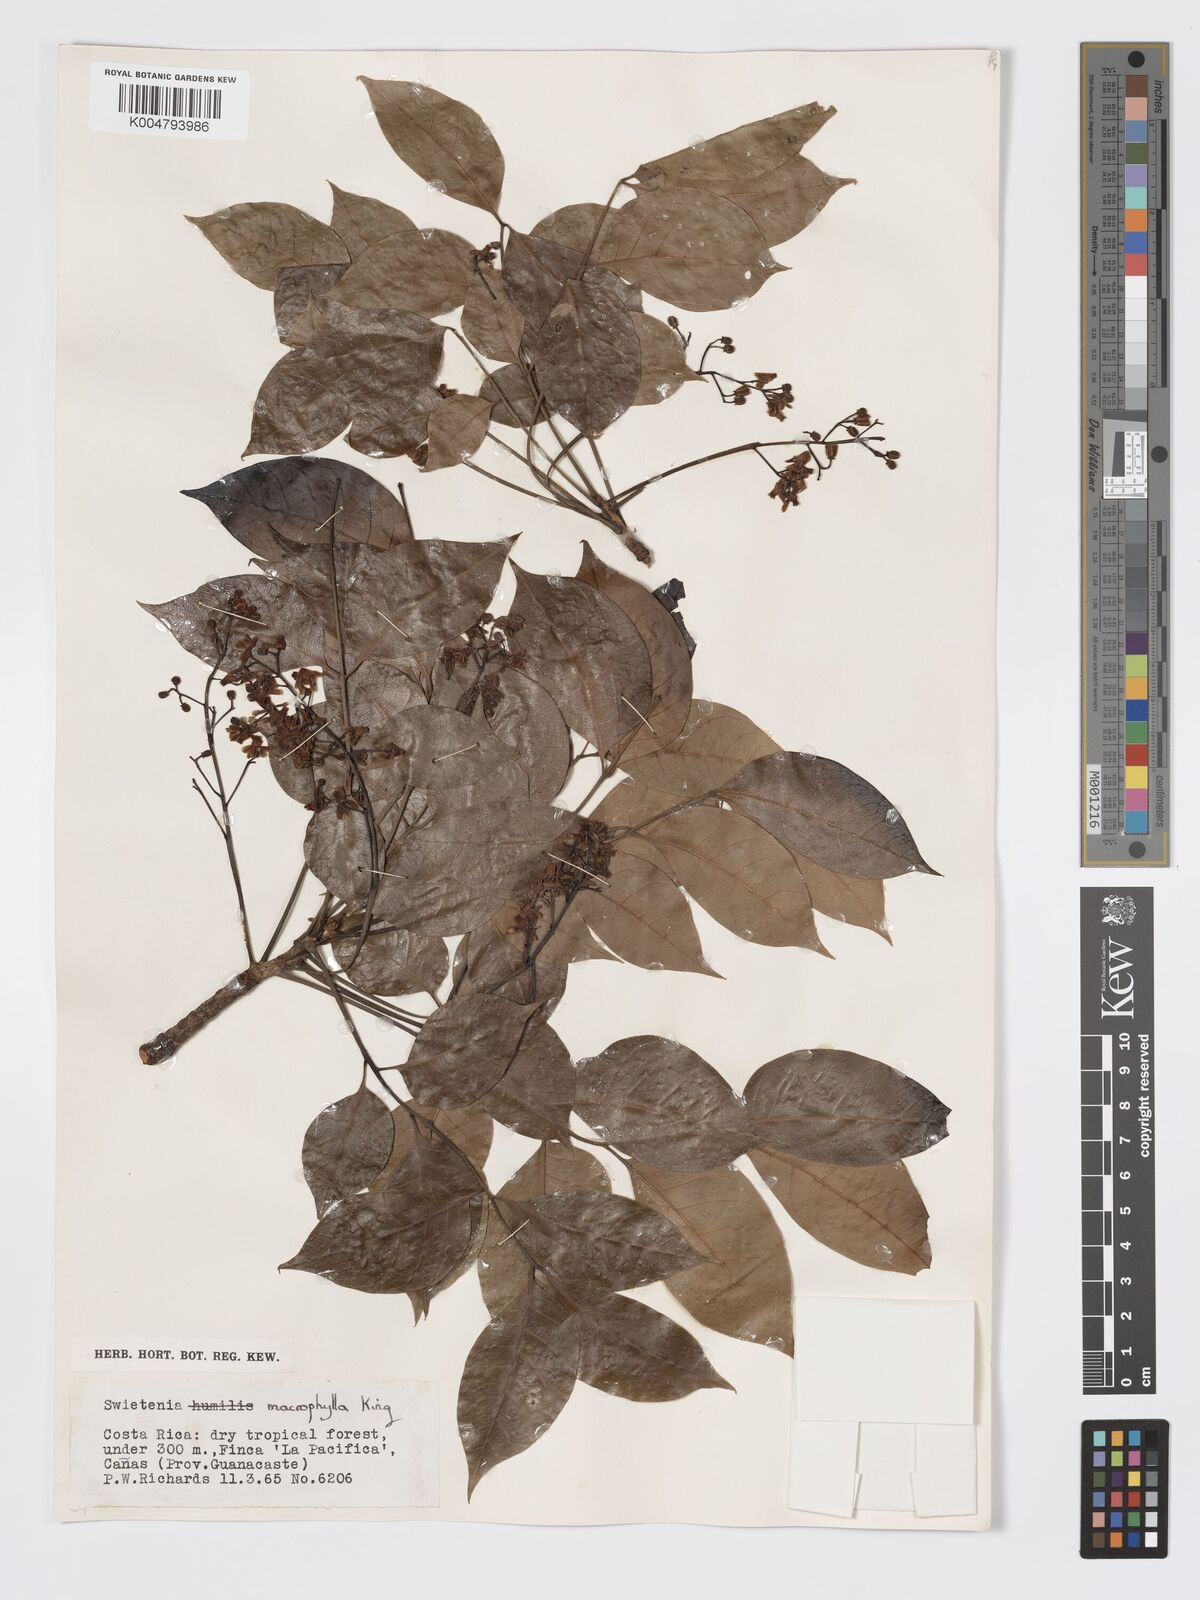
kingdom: Plantae
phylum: Tracheophyta
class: Magnoliopsida
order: Sapindales
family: Meliaceae
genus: Swietenia
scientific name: Swietenia macrophylla
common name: Honduras mahogany
